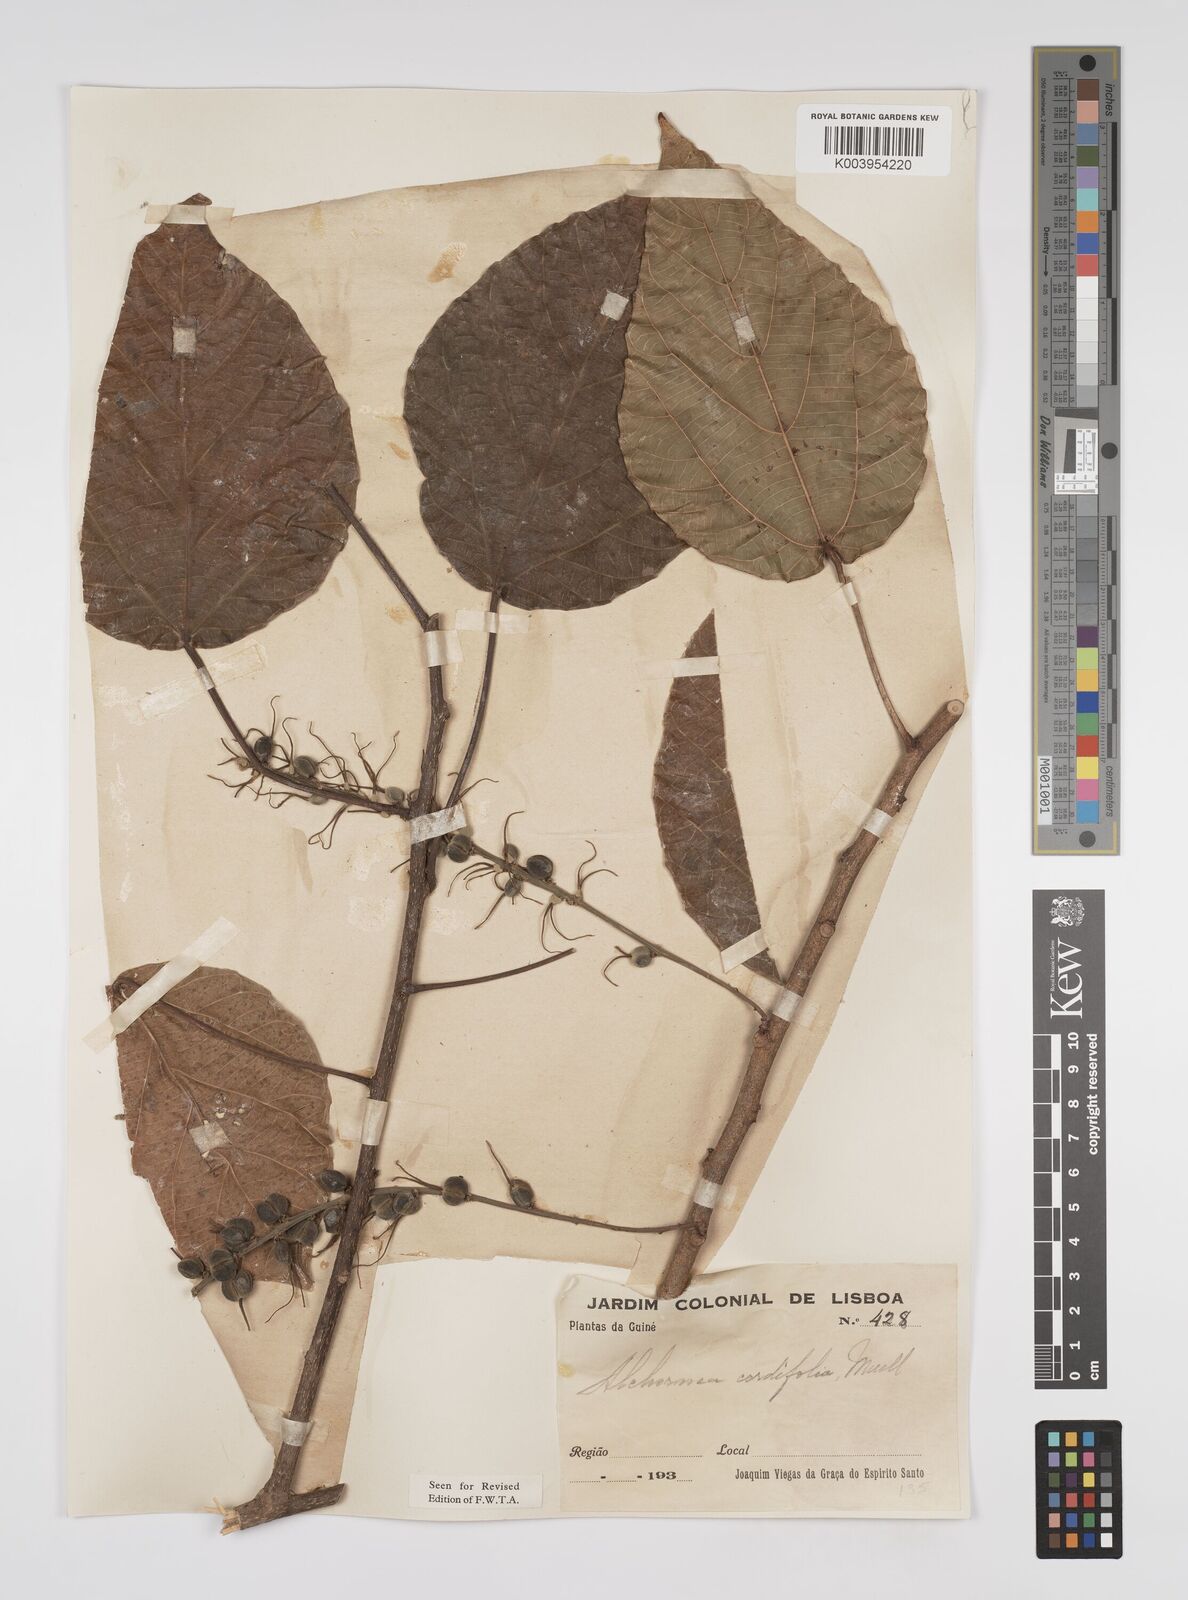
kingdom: Plantae
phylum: Tracheophyta
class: Magnoliopsida
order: Malpighiales
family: Euphorbiaceae
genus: Alchornea
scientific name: Alchornea cordifolia
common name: Christmasbush
